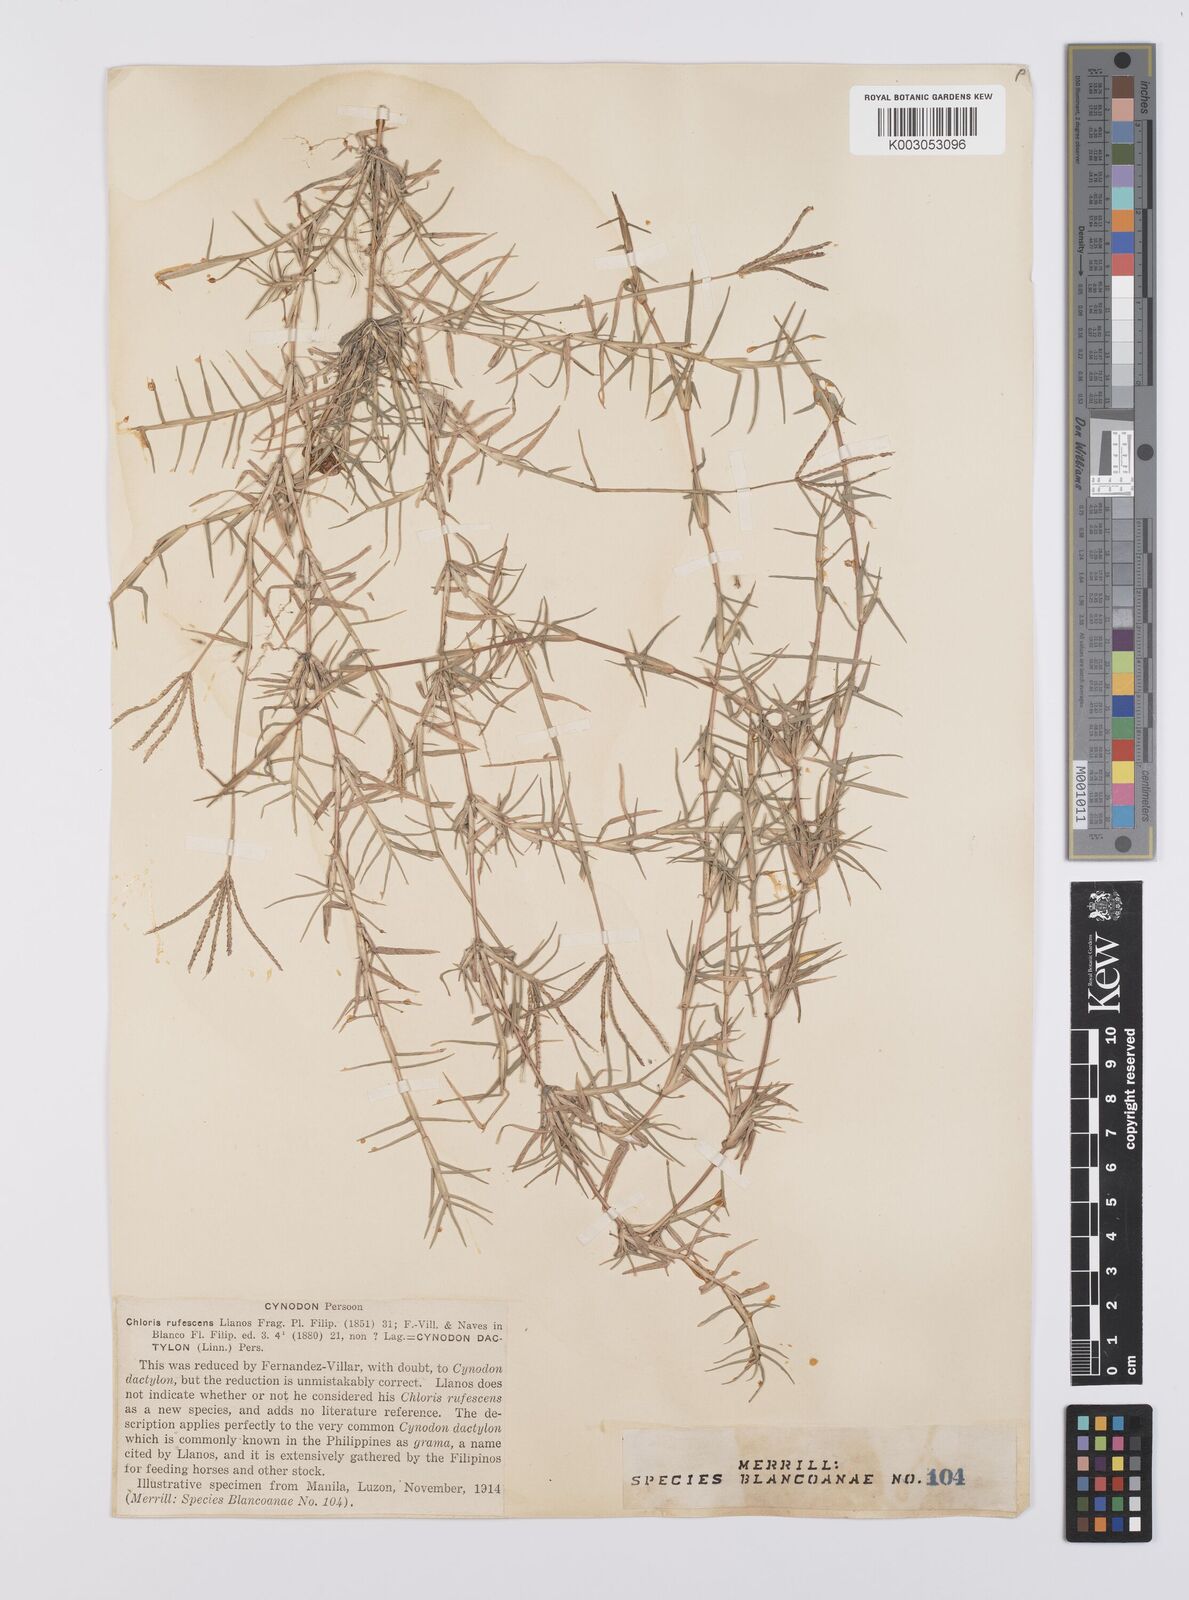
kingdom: Plantae
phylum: Tracheophyta
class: Liliopsida
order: Poales
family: Poaceae
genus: Cynodon
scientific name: Cynodon dactylon
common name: Bermuda grass
